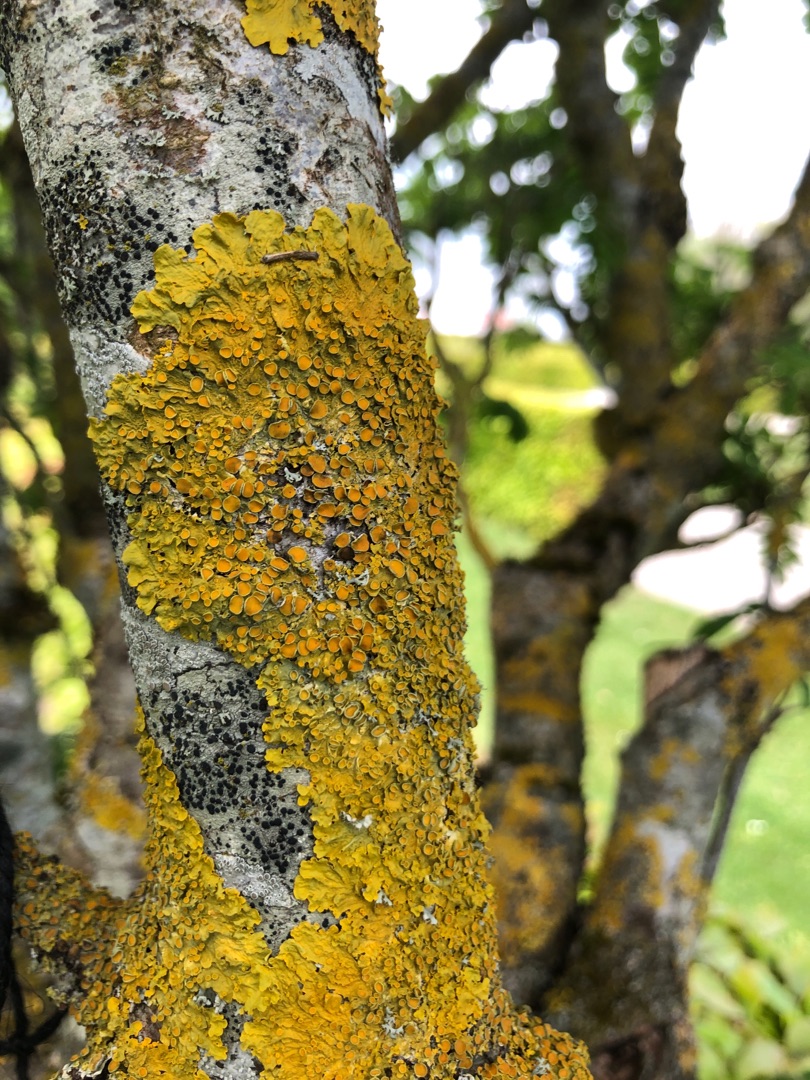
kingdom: Fungi
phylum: Ascomycota
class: Lecanoromycetes
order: Teloschistales
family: Teloschistaceae
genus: Xanthoria
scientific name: Xanthoria parietina
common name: Almindelig væggelav
